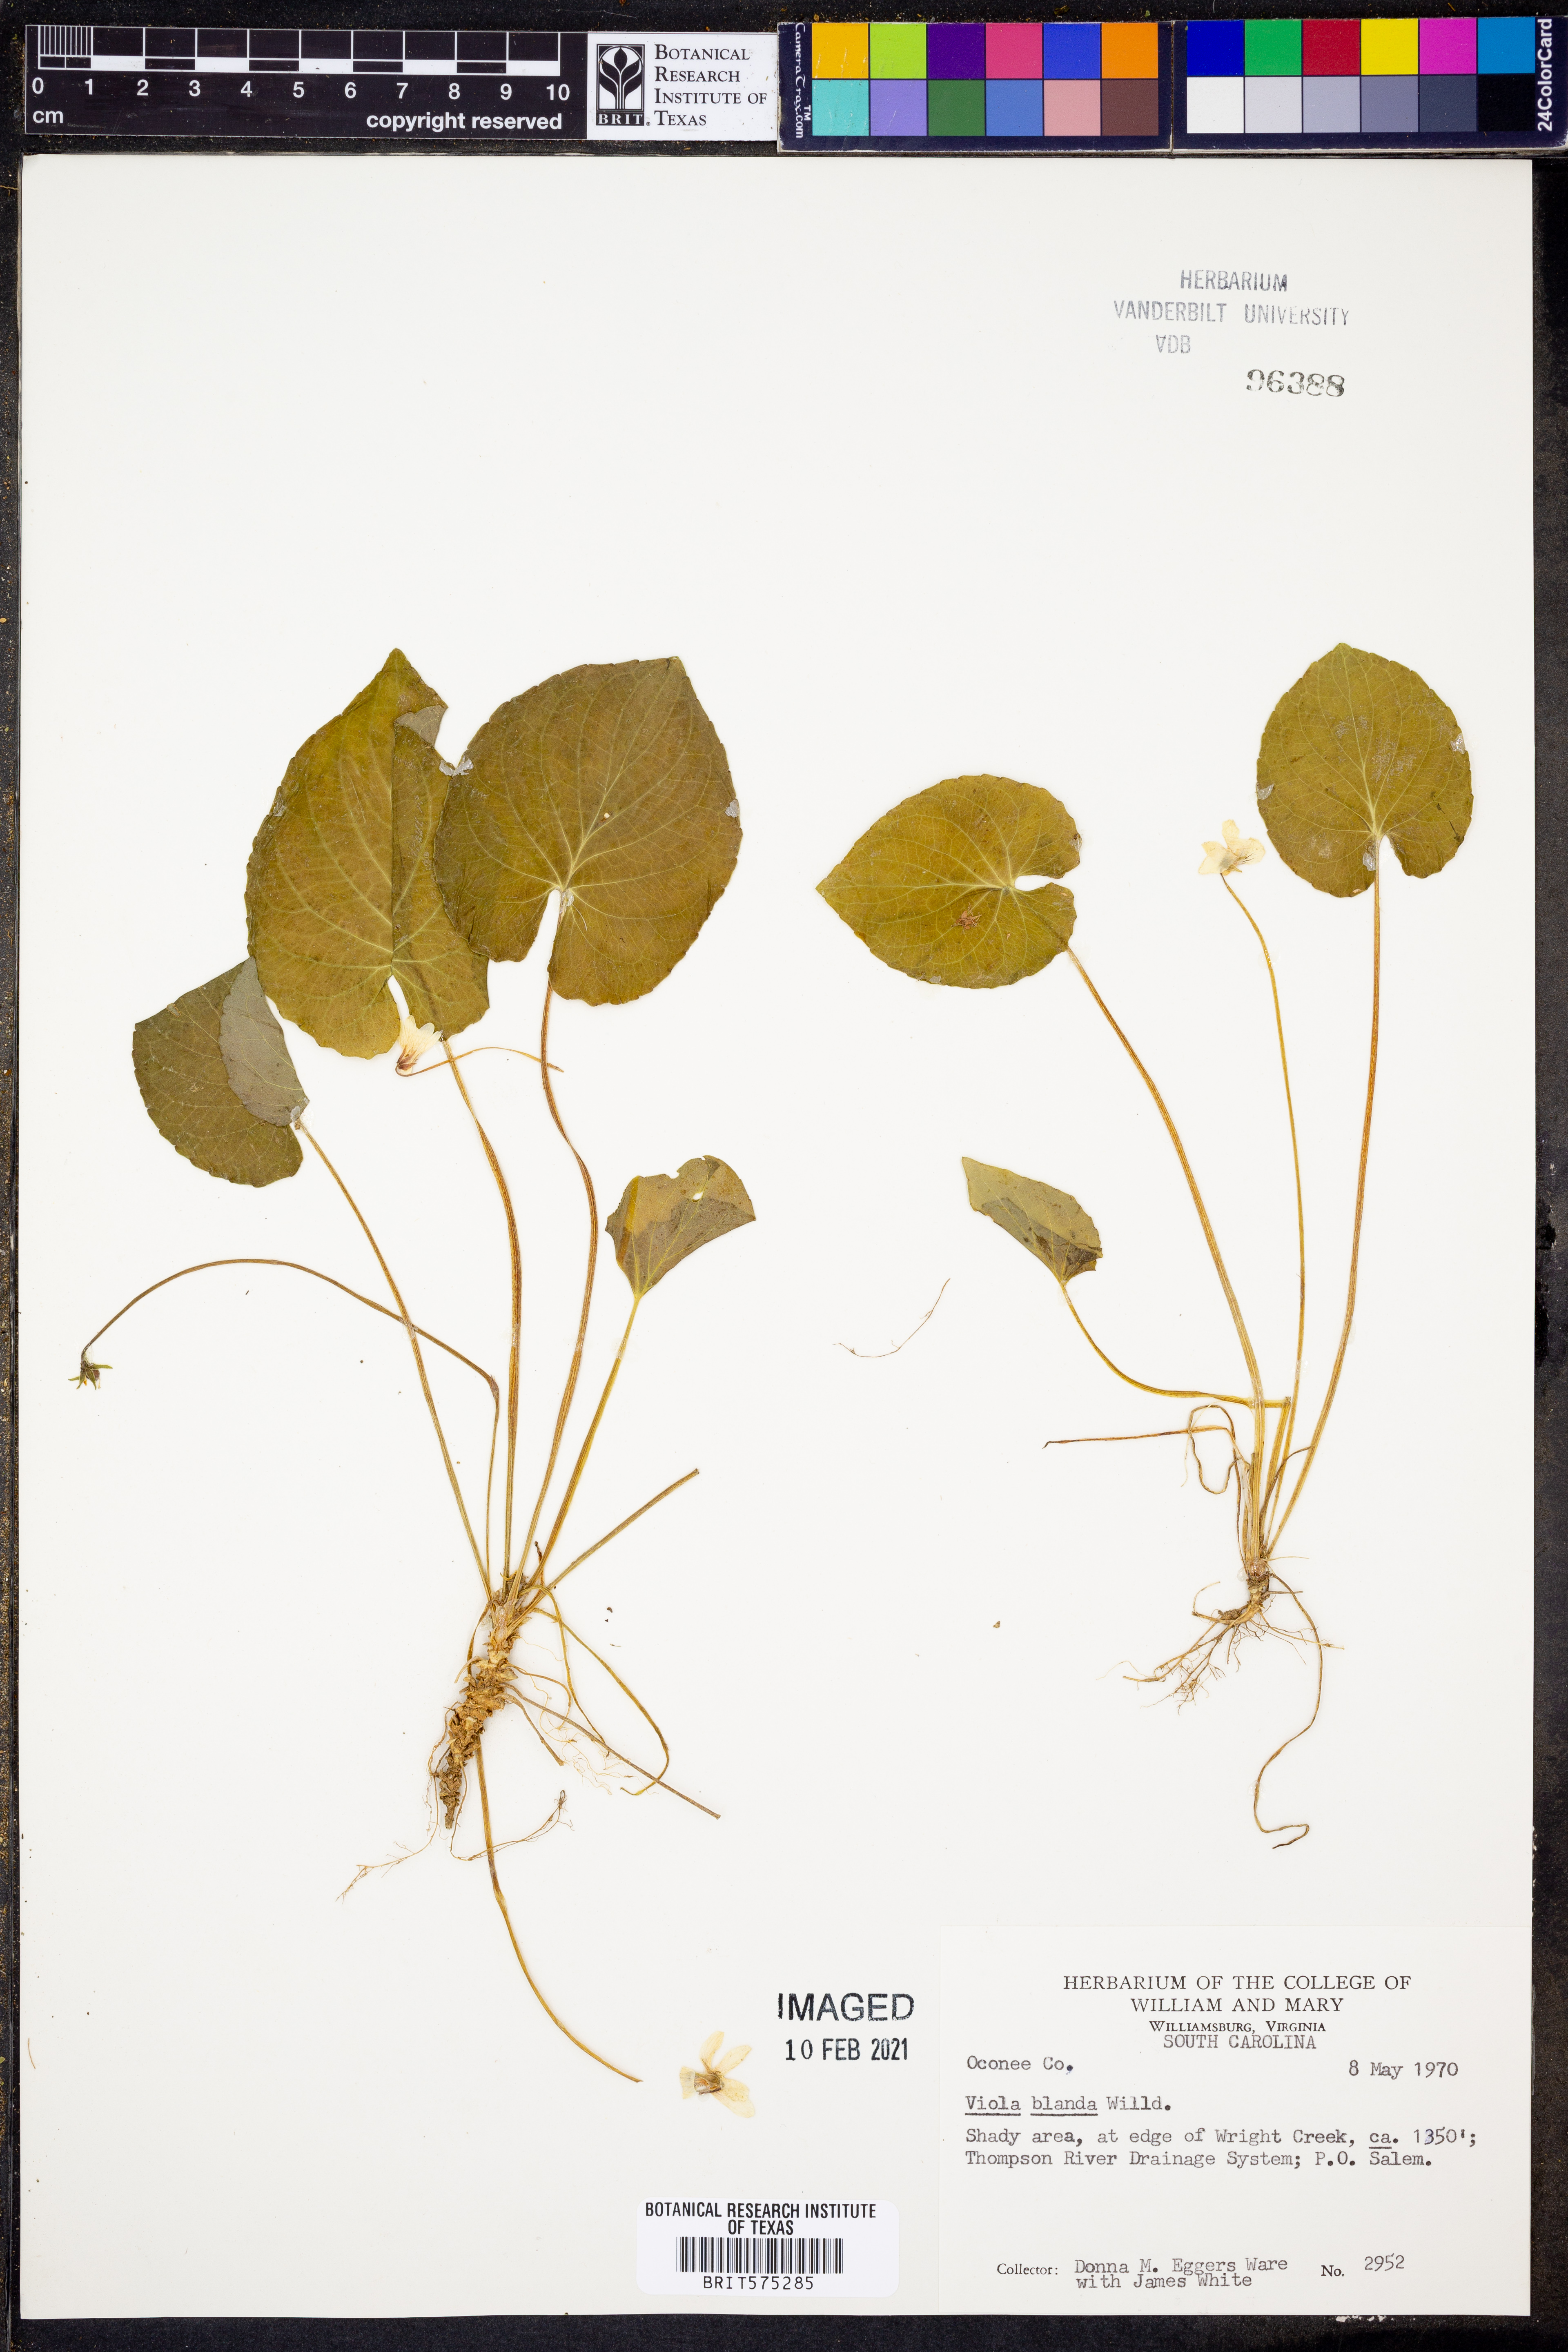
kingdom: Plantae
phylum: Tracheophyta
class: Magnoliopsida
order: Malpighiales
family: Violaceae
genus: Viola
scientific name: Viola blanda
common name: Sweet white violet
